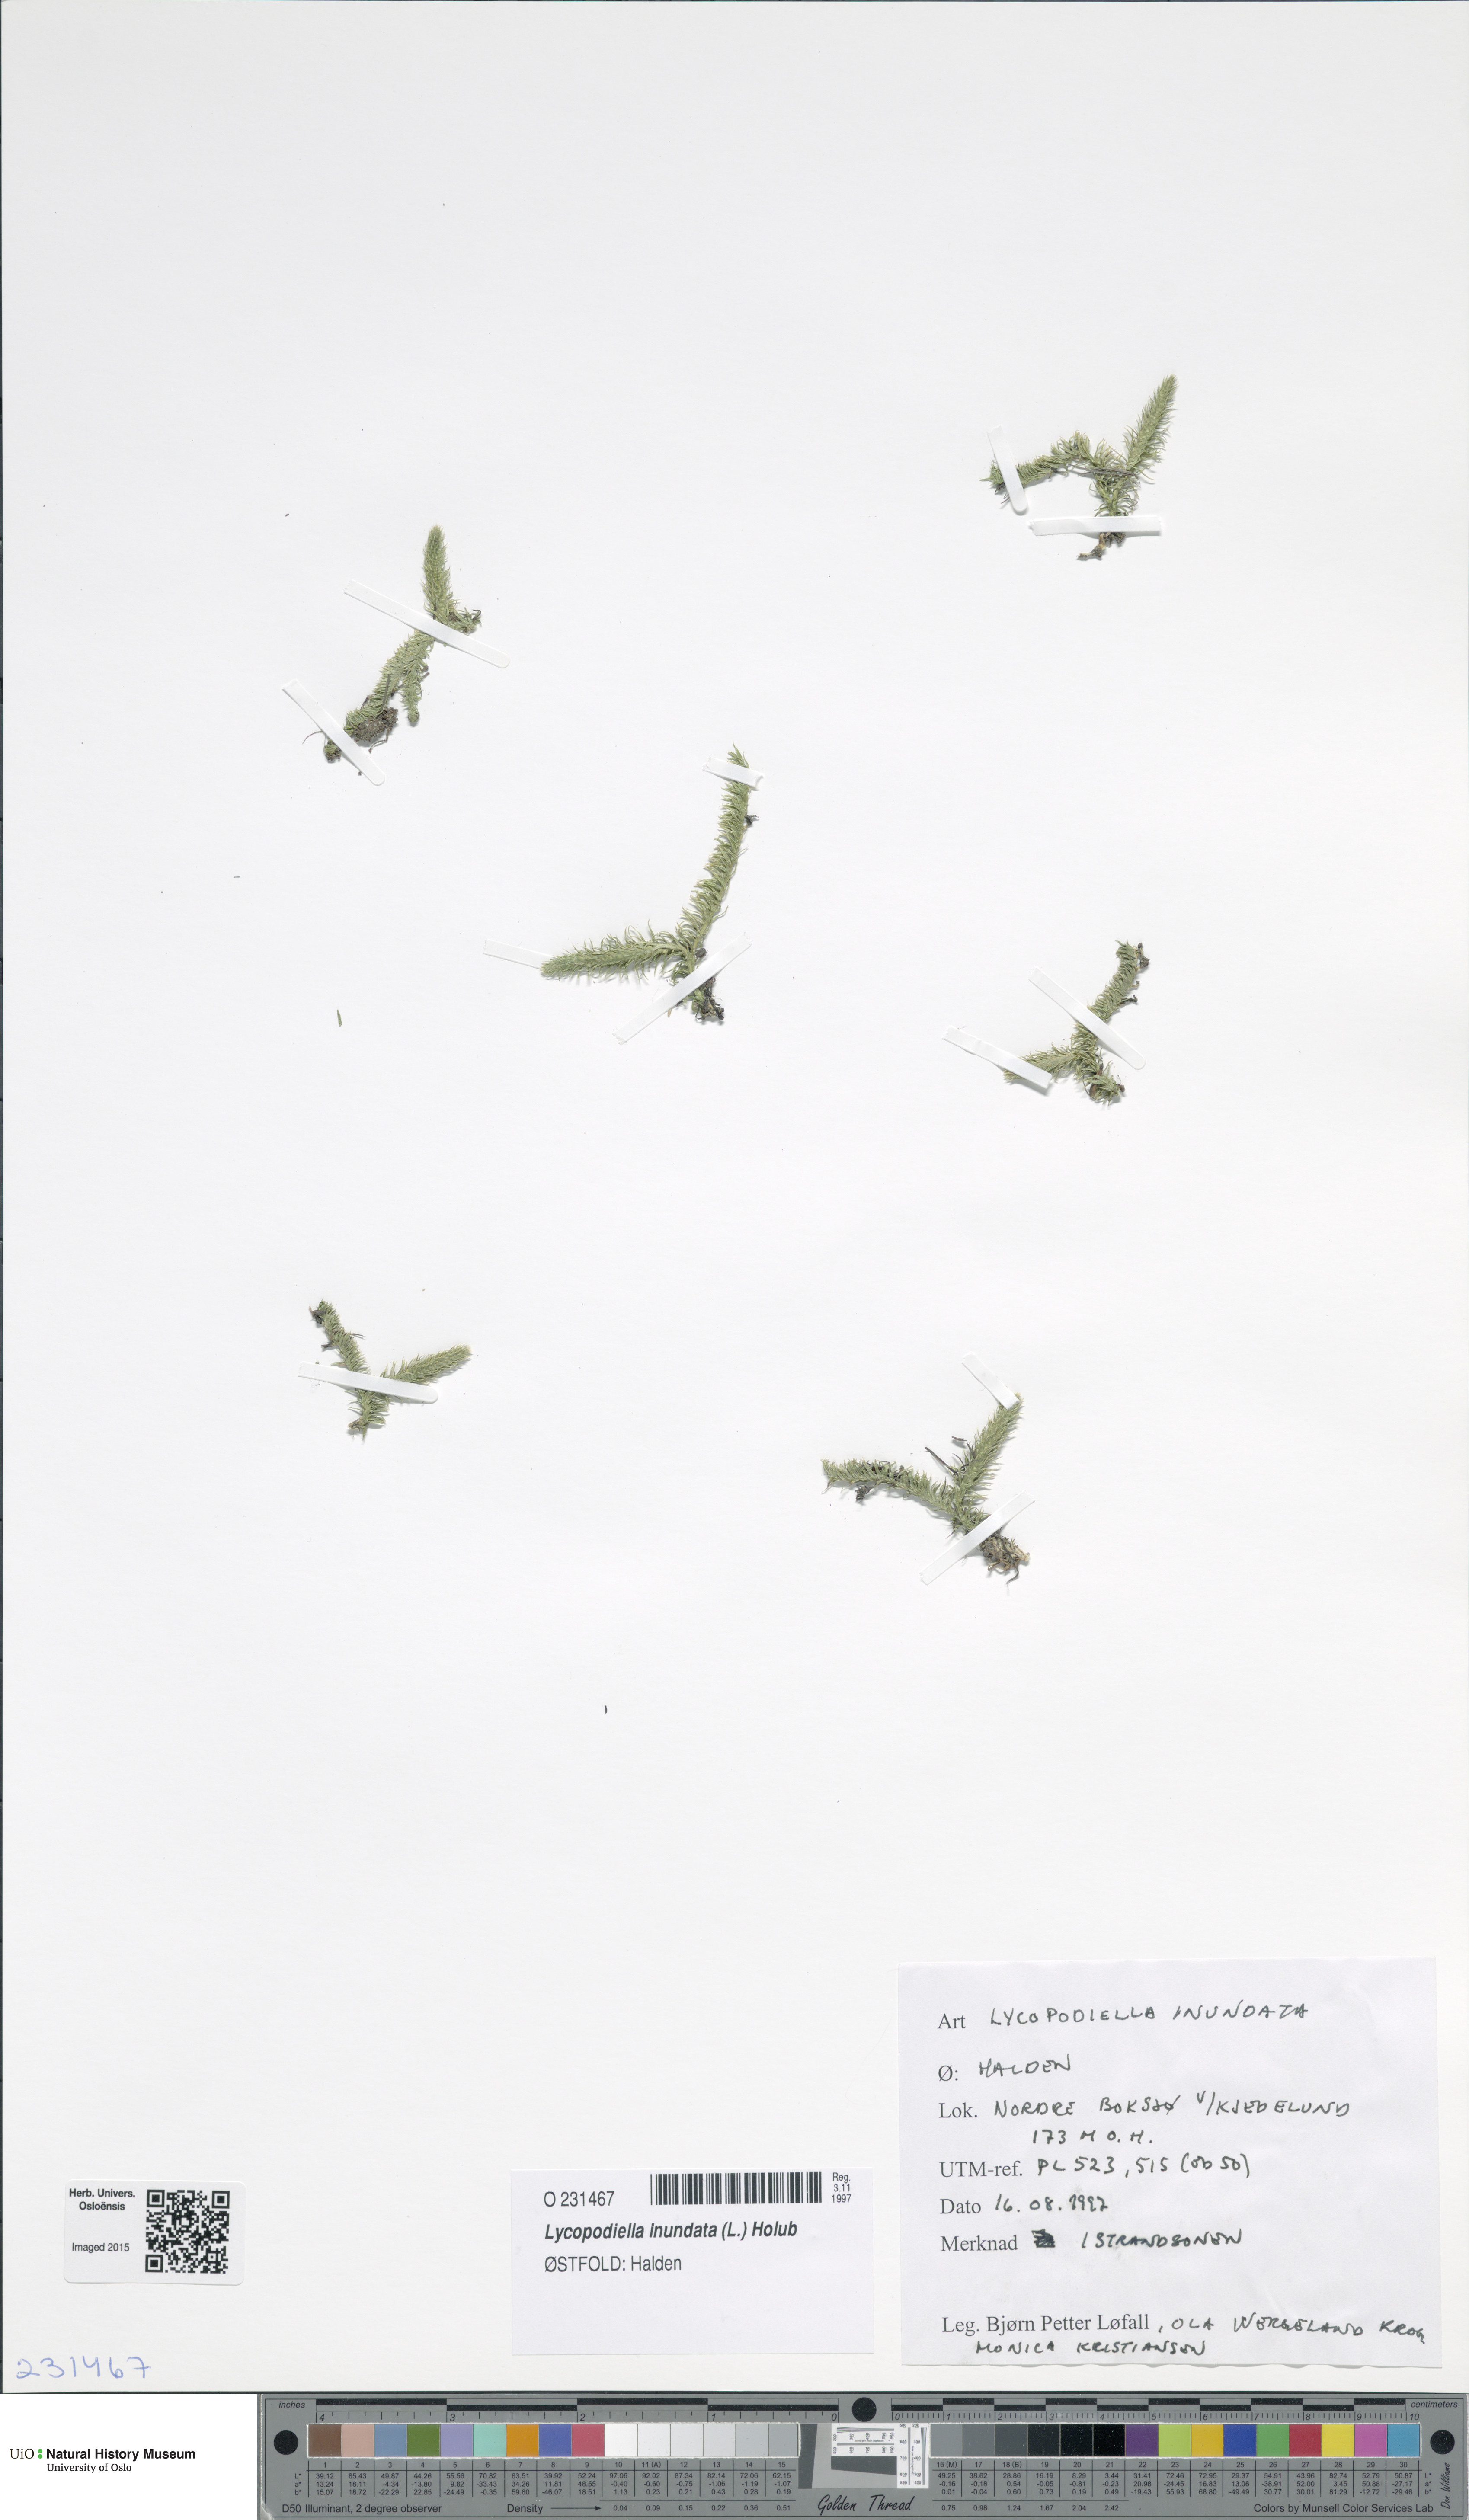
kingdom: Plantae
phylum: Tracheophyta
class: Lycopodiopsida
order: Lycopodiales
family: Lycopodiaceae
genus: Lycopodiella
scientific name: Lycopodiella inundata
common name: Marsh clubmoss
